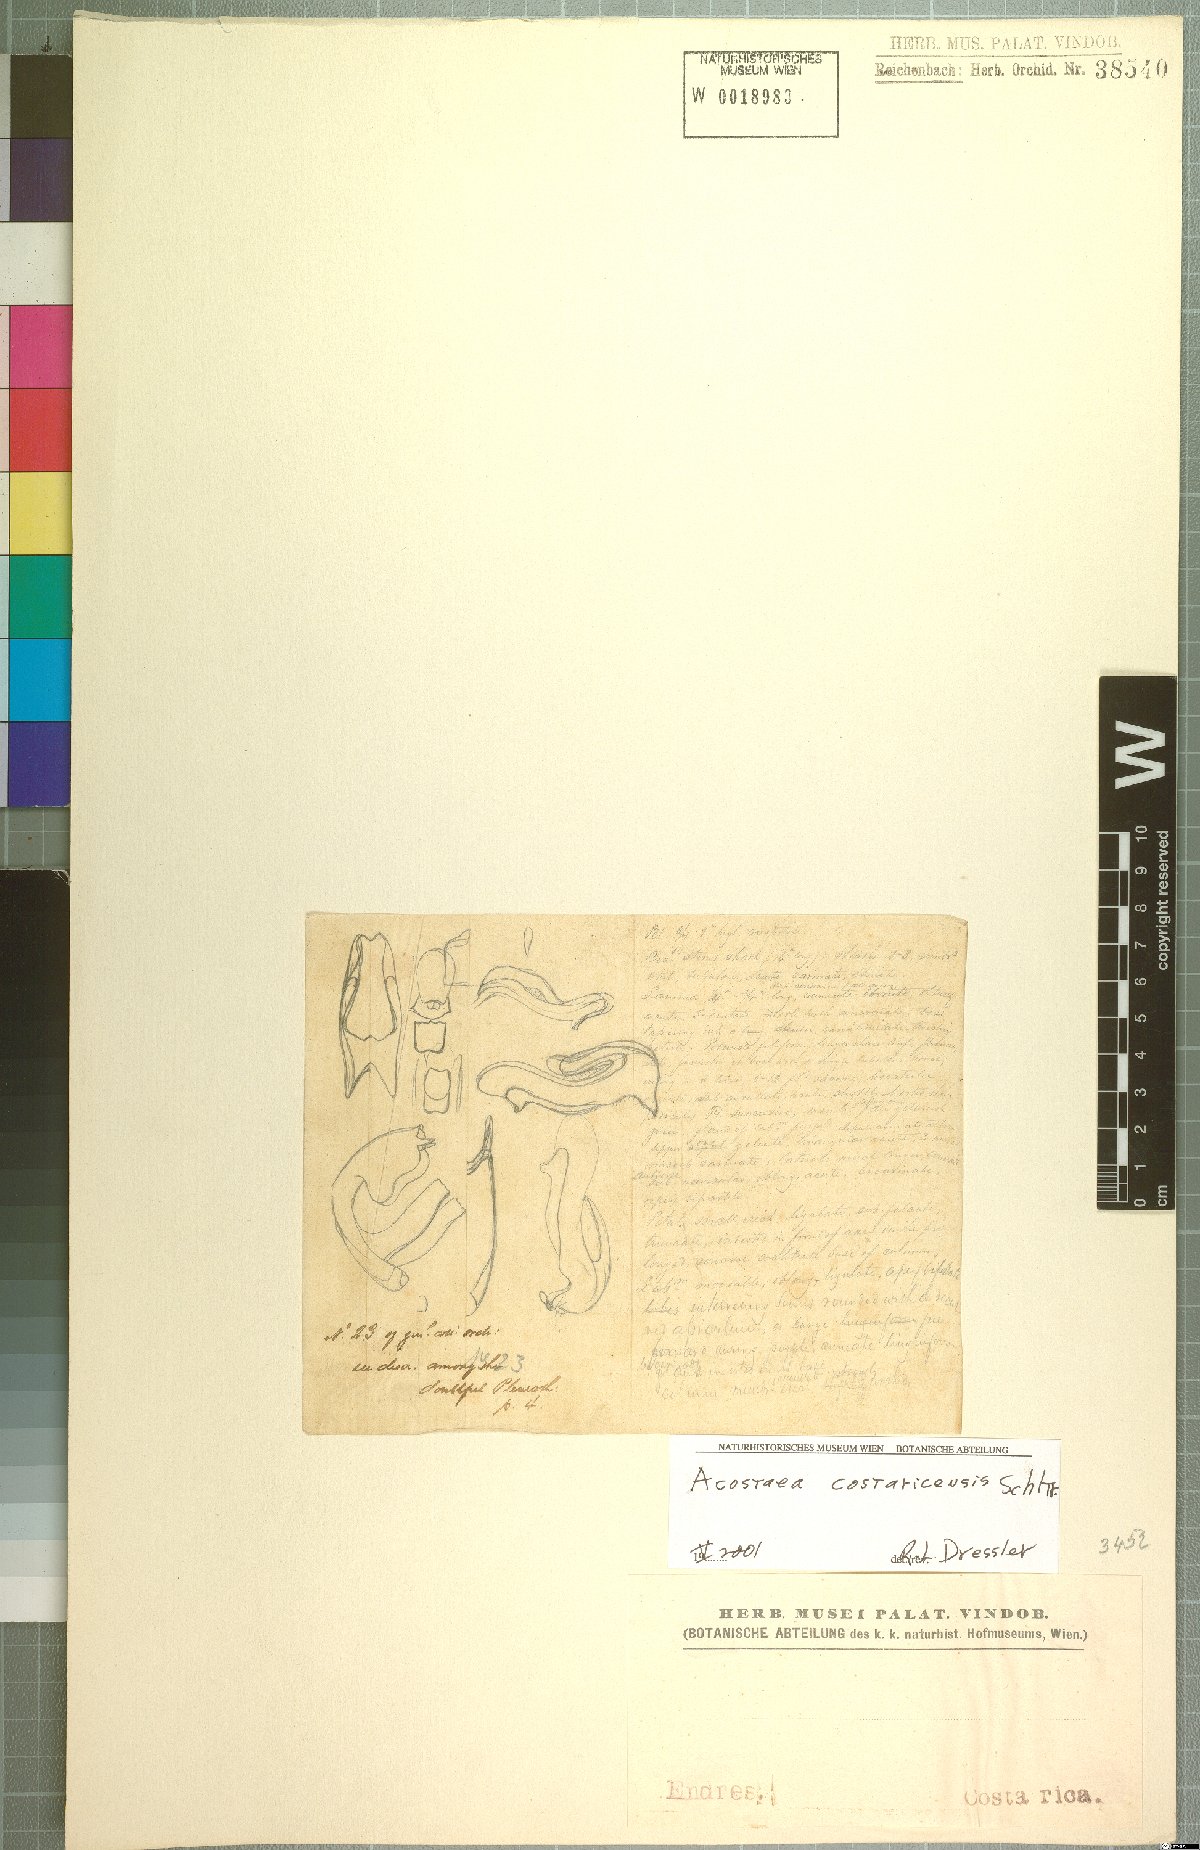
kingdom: Plantae
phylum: Tracheophyta
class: Liliopsida
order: Asparagales
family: Orchidaceae
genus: Specklinia
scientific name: Specklinia colombiana
